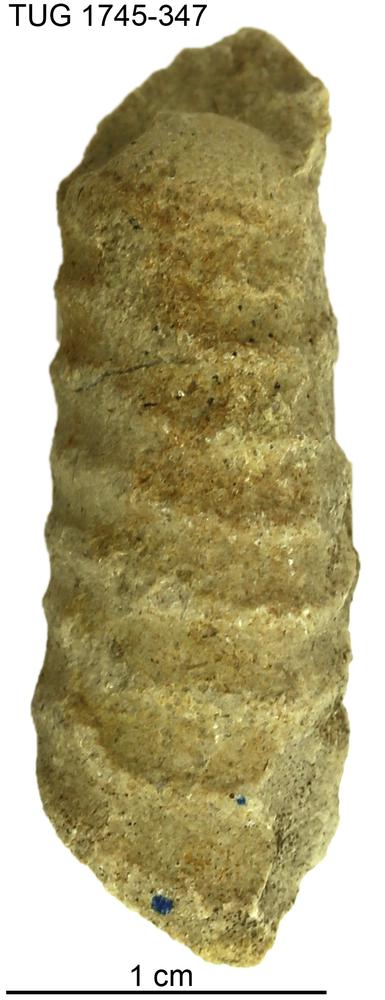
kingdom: Animalia
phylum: Mollusca
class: Cephalopoda
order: Orthocerida
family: Orthoceratidae
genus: Ctenoceras
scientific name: Ctenoceras
